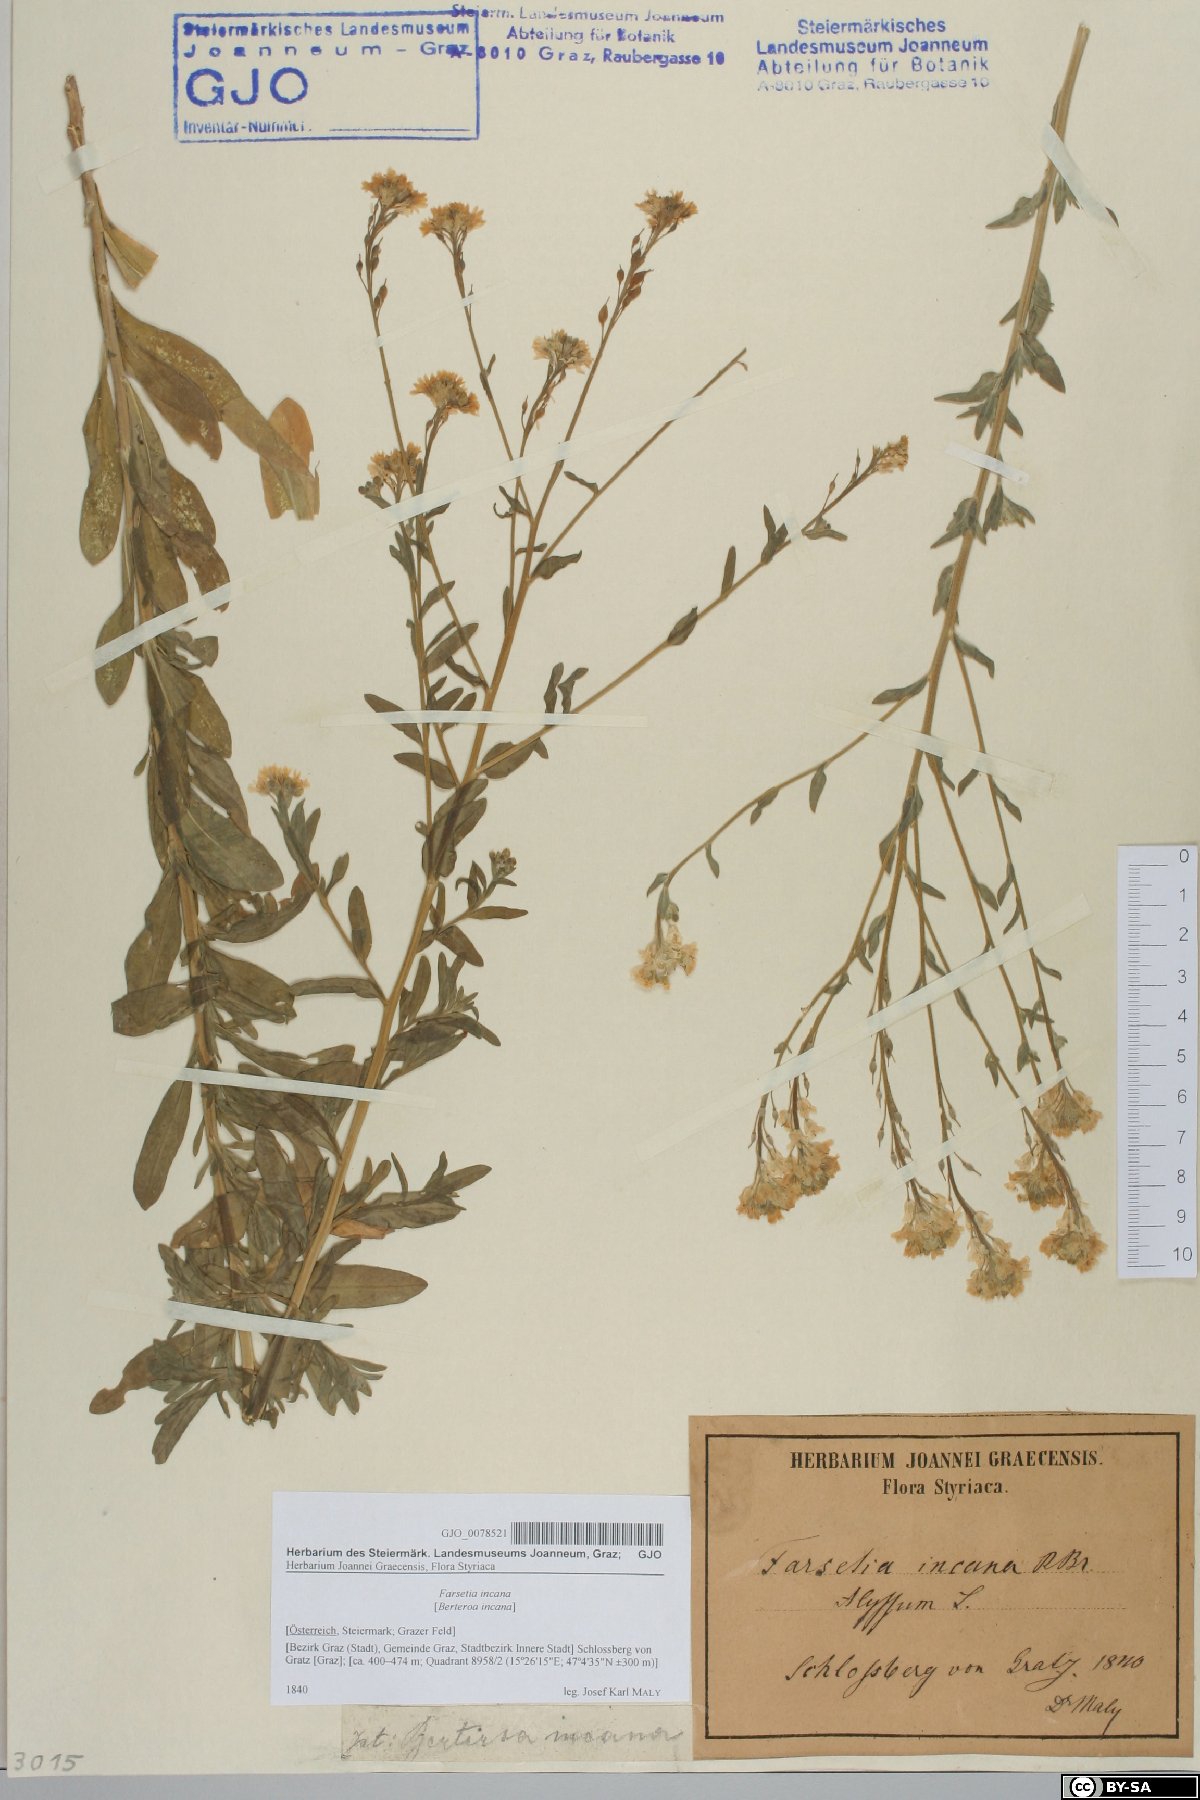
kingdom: Plantae
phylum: Tracheophyta
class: Magnoliopsida
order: Brassicales
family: Brassicaceae
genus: Berteroa
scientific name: Berteroa incana
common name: Hoary alison
